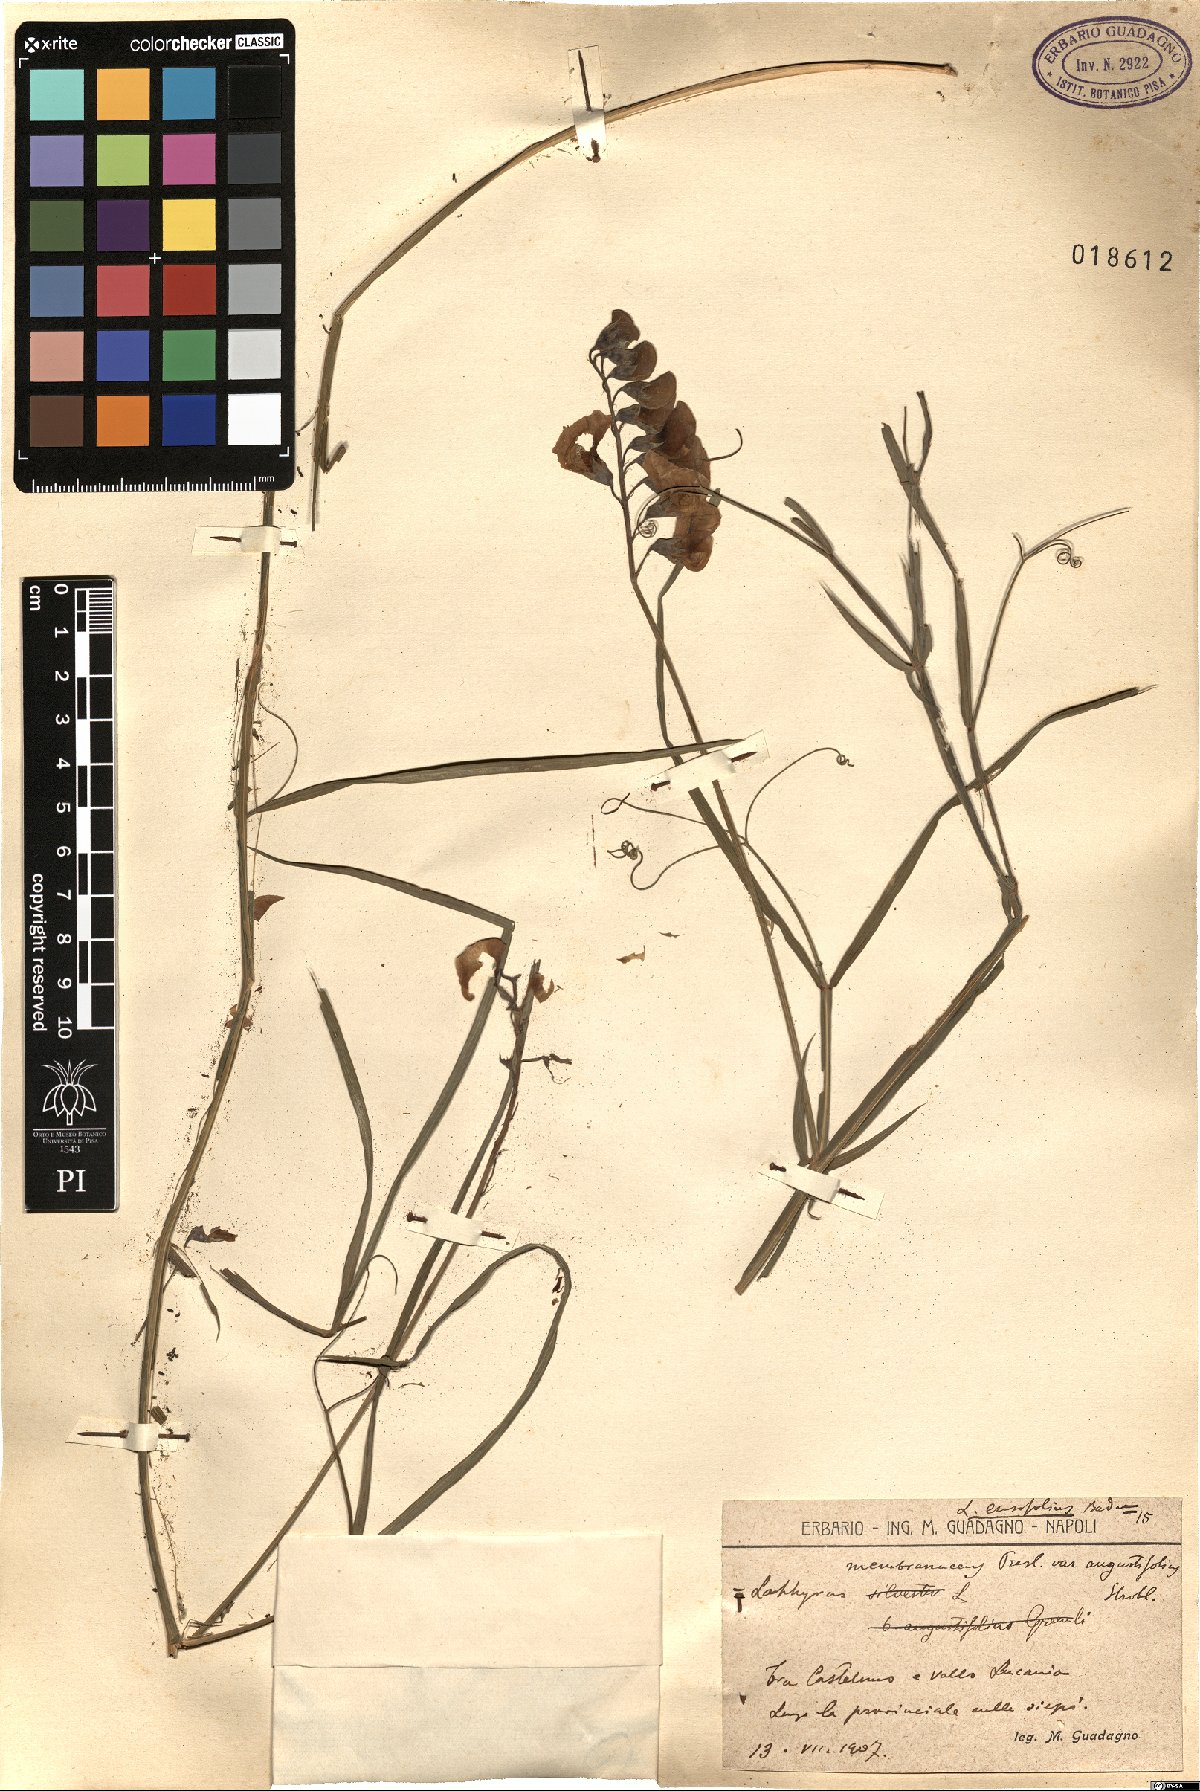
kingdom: Plantae
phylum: Tracheophyta
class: Magnoliopsida
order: Fabales
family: Fabaceae
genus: Lathyrus
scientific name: Lathyrus bauhini
